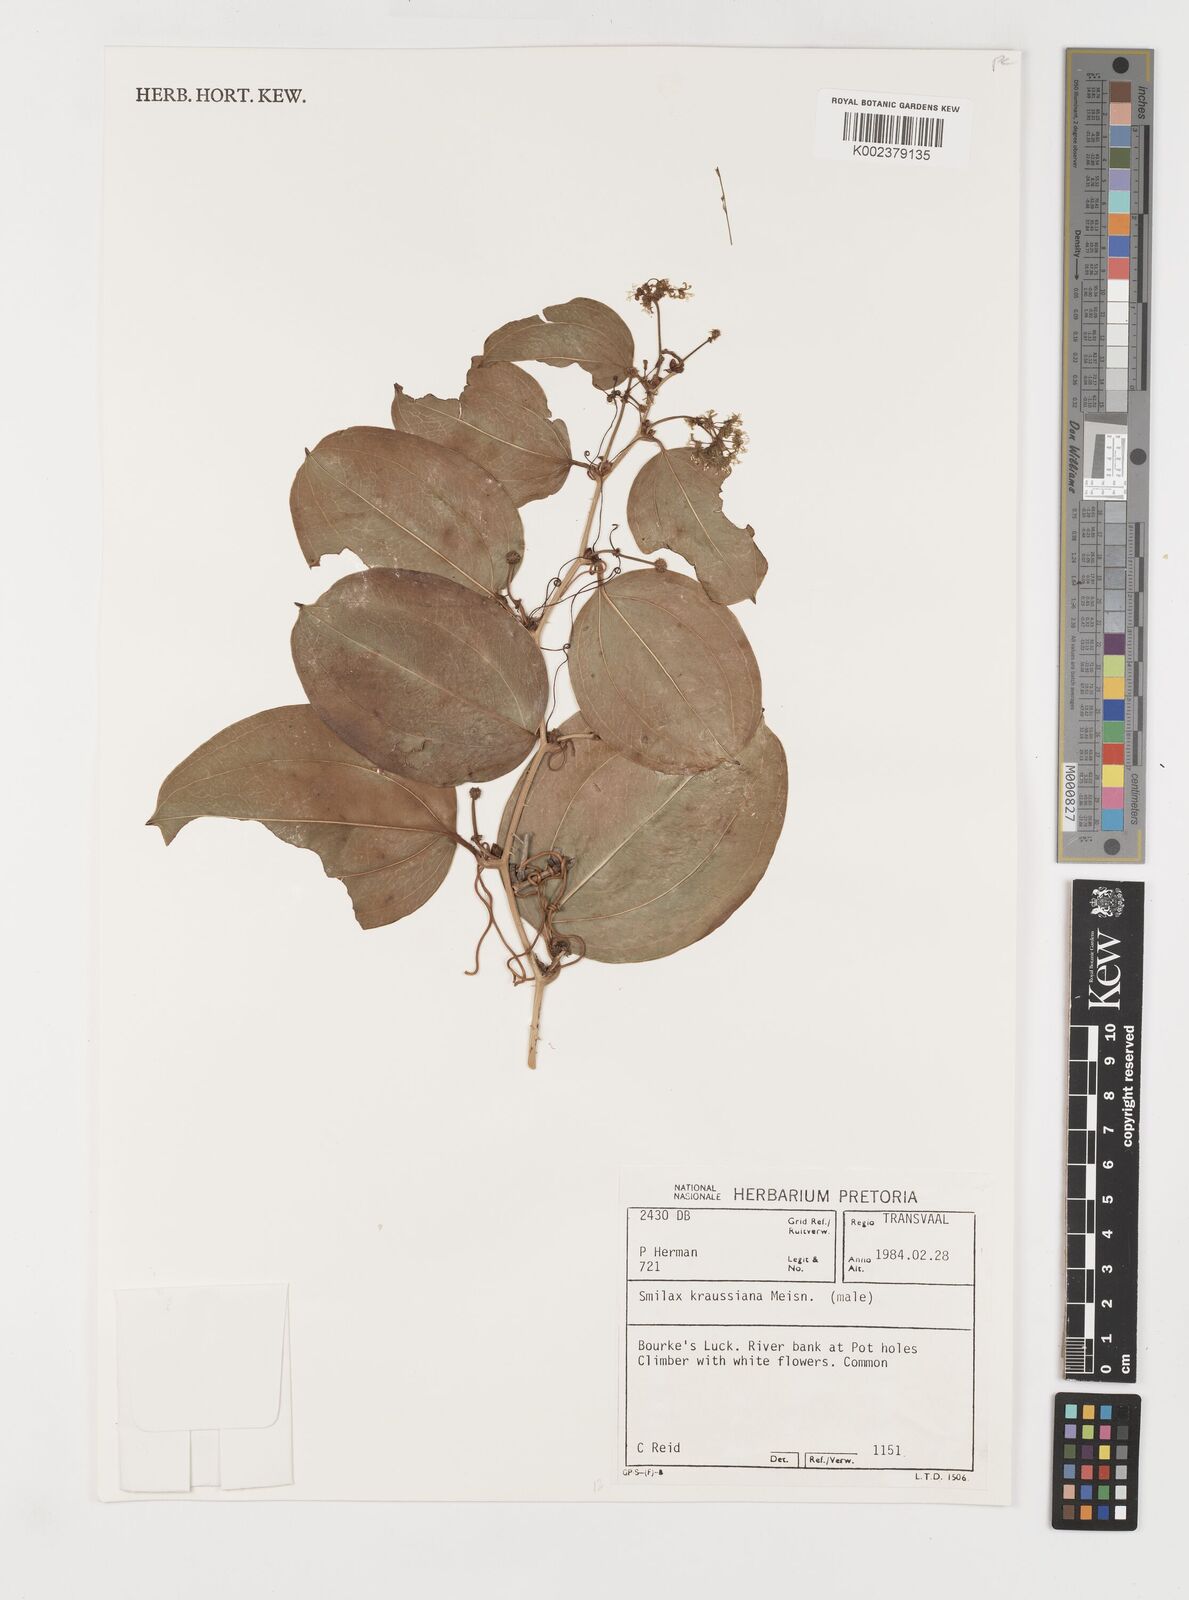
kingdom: Plantae
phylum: Tracheophyta
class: Liliopsida
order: Liliales
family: Smilacaceae
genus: Smilax
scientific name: Smilax anceps
